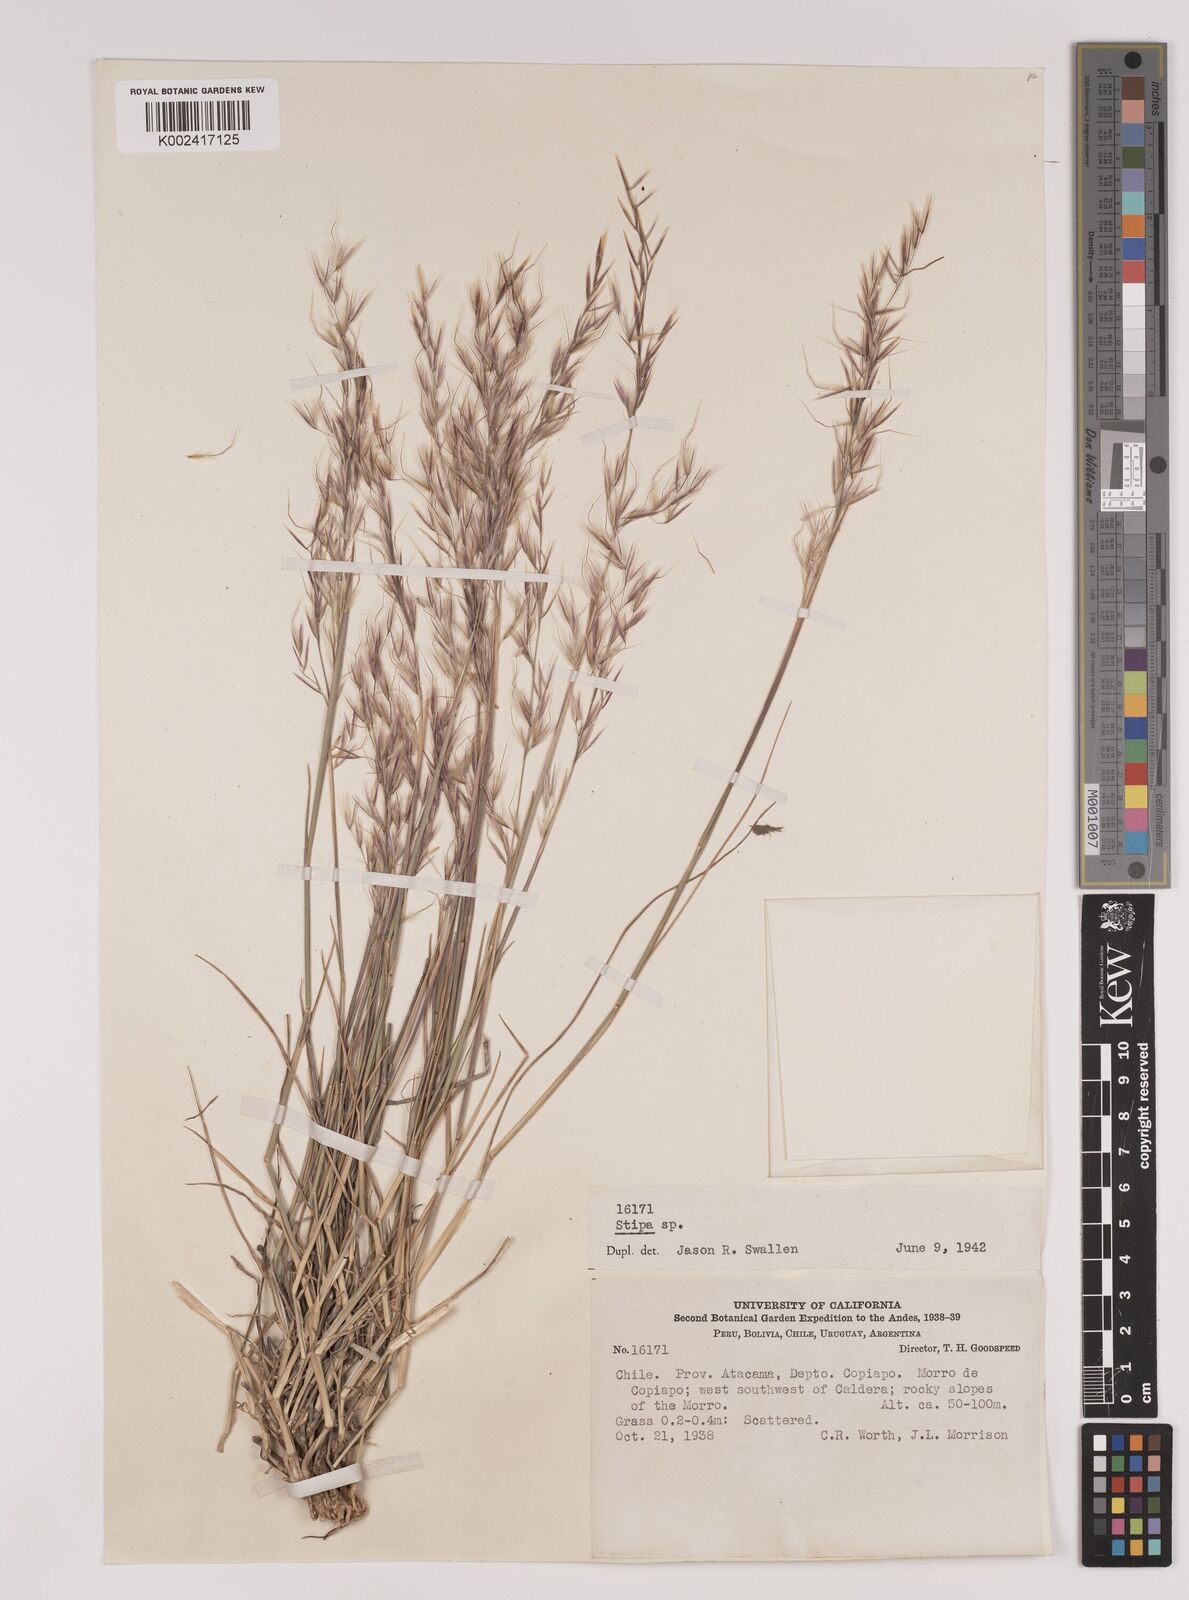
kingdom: Plantae
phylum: Tracheophyta
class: Liliopsida
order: Poales
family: Poaceae
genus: Stipa
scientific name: Stipa
